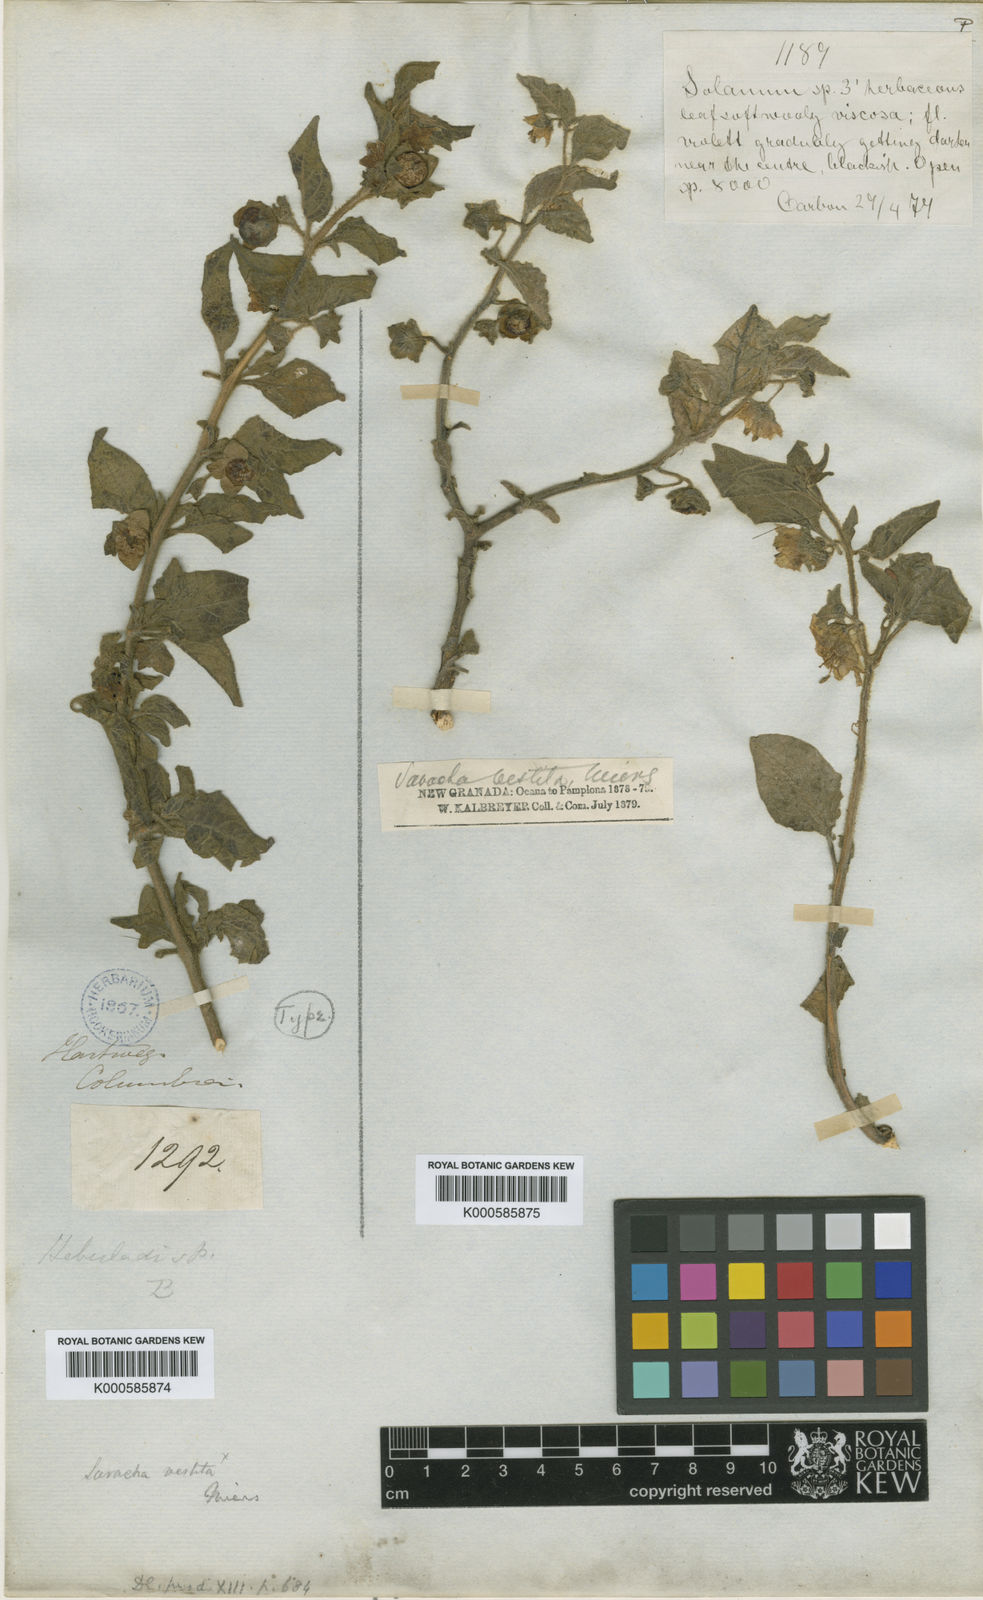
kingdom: Plantae
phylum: Tracheophyta
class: Magnoliopsida
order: Solanales
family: Solanaceae
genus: Jaltomata
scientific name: Jaltomata vestita
